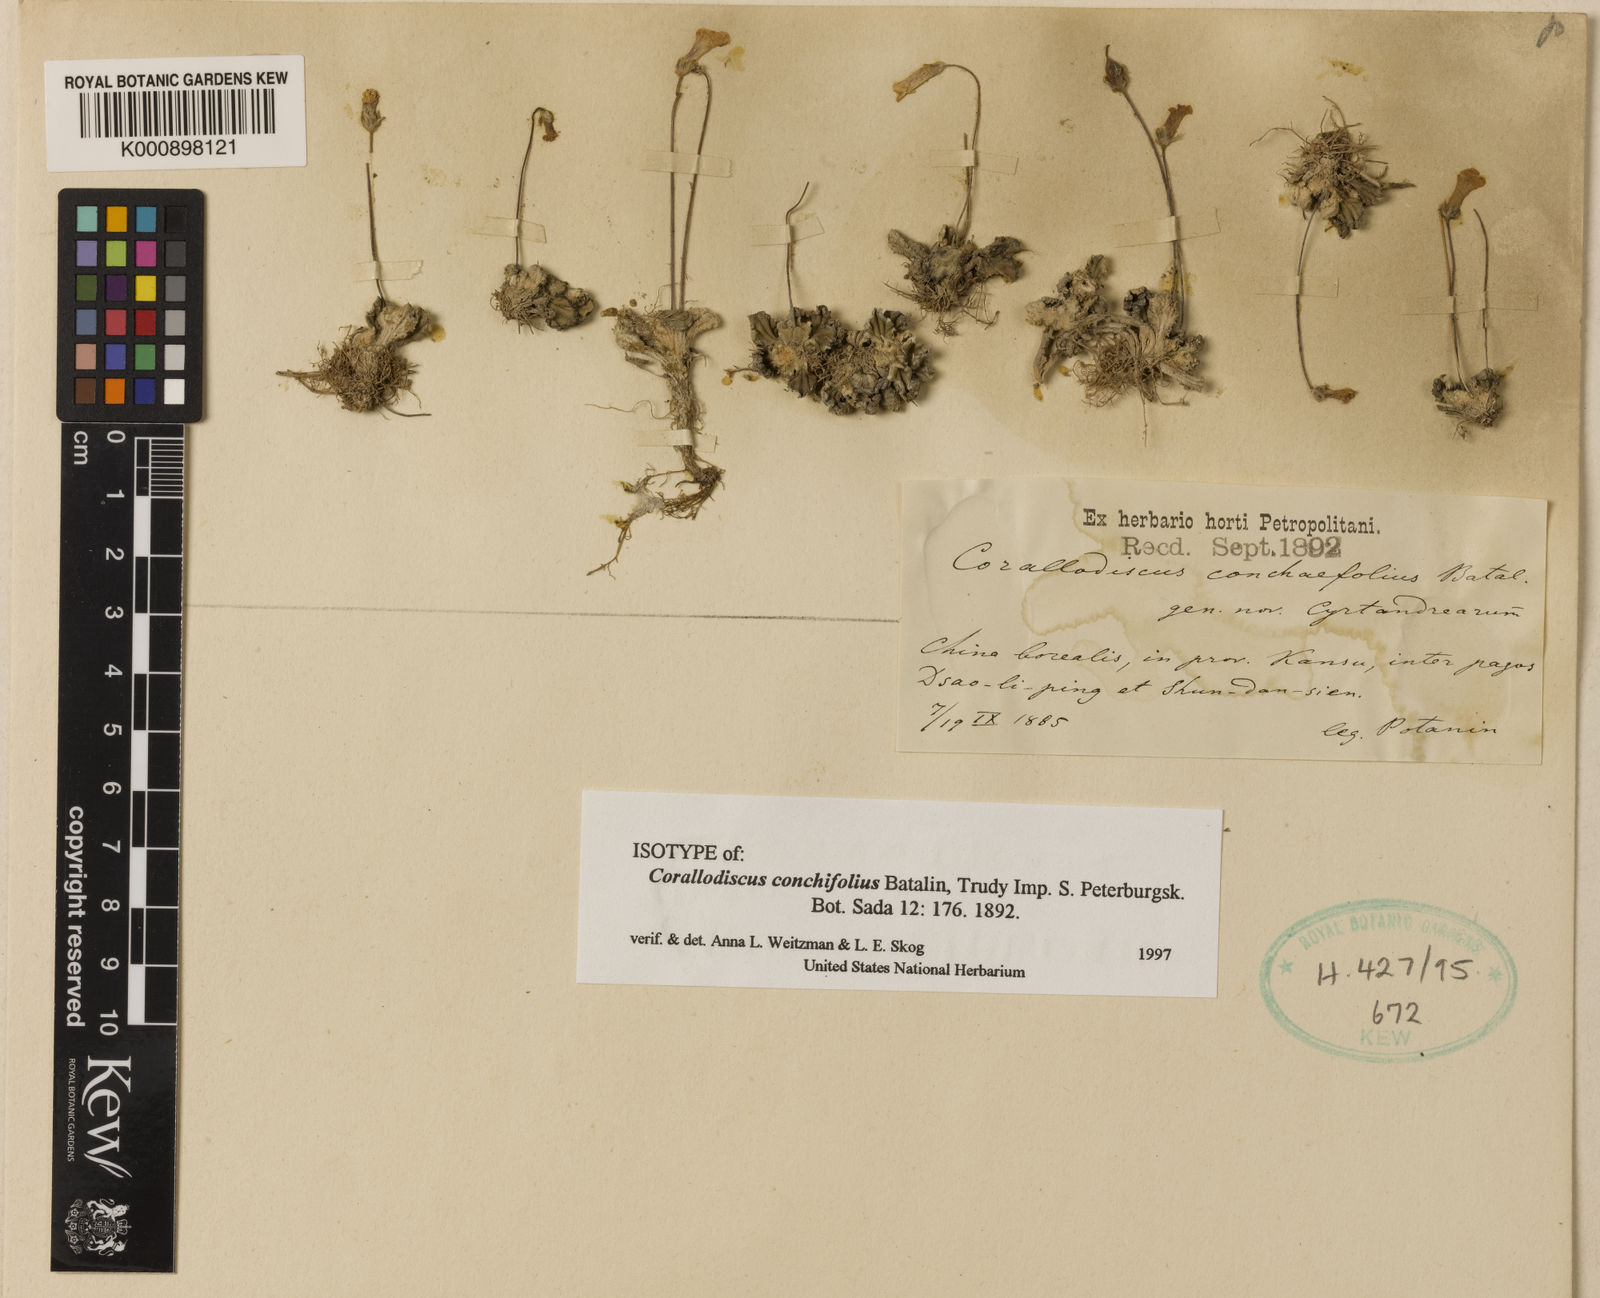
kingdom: Plantae
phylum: Tracheophyta
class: Magnoliopsida
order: Lamiales
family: Gesneriaceae
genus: Corallodiscus
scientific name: Corallodiscus conchifolius
